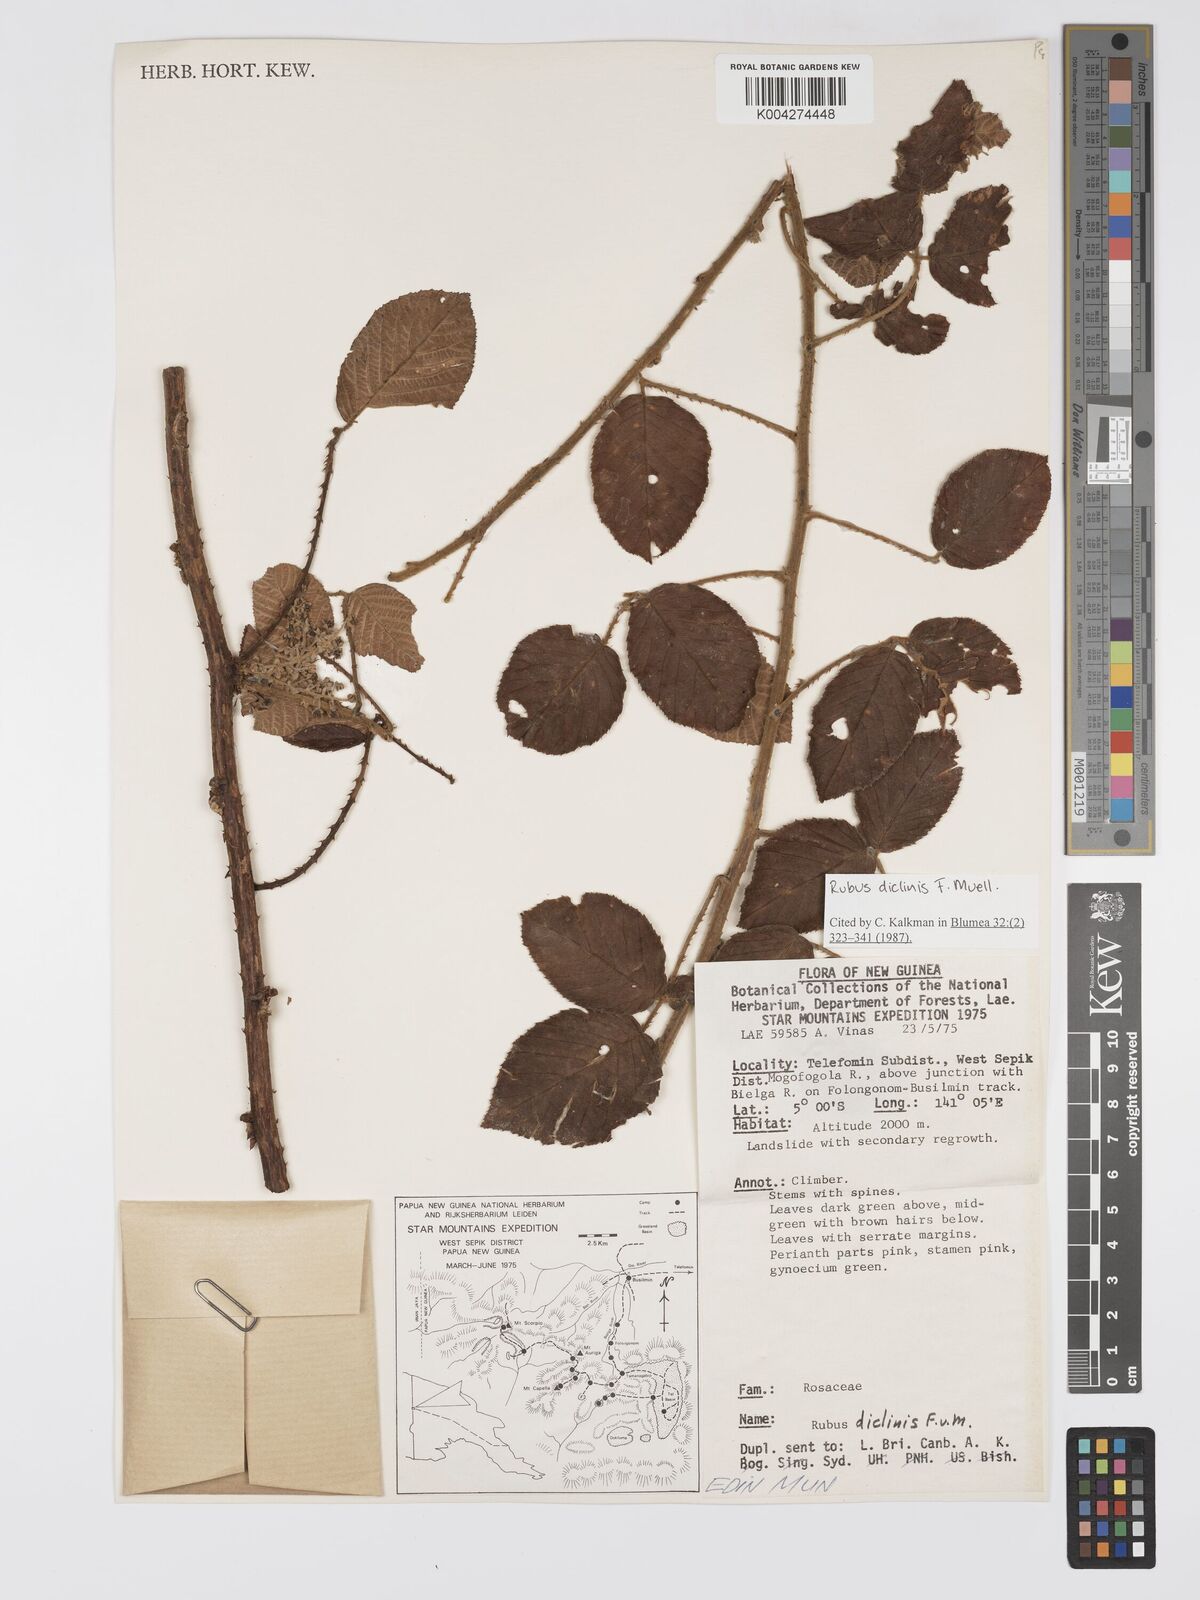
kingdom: Plantae
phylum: Tracheophyta
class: Magnoliopsida
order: Rosales
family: Rosaceae
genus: Rubus
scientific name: Rubus diclinis
